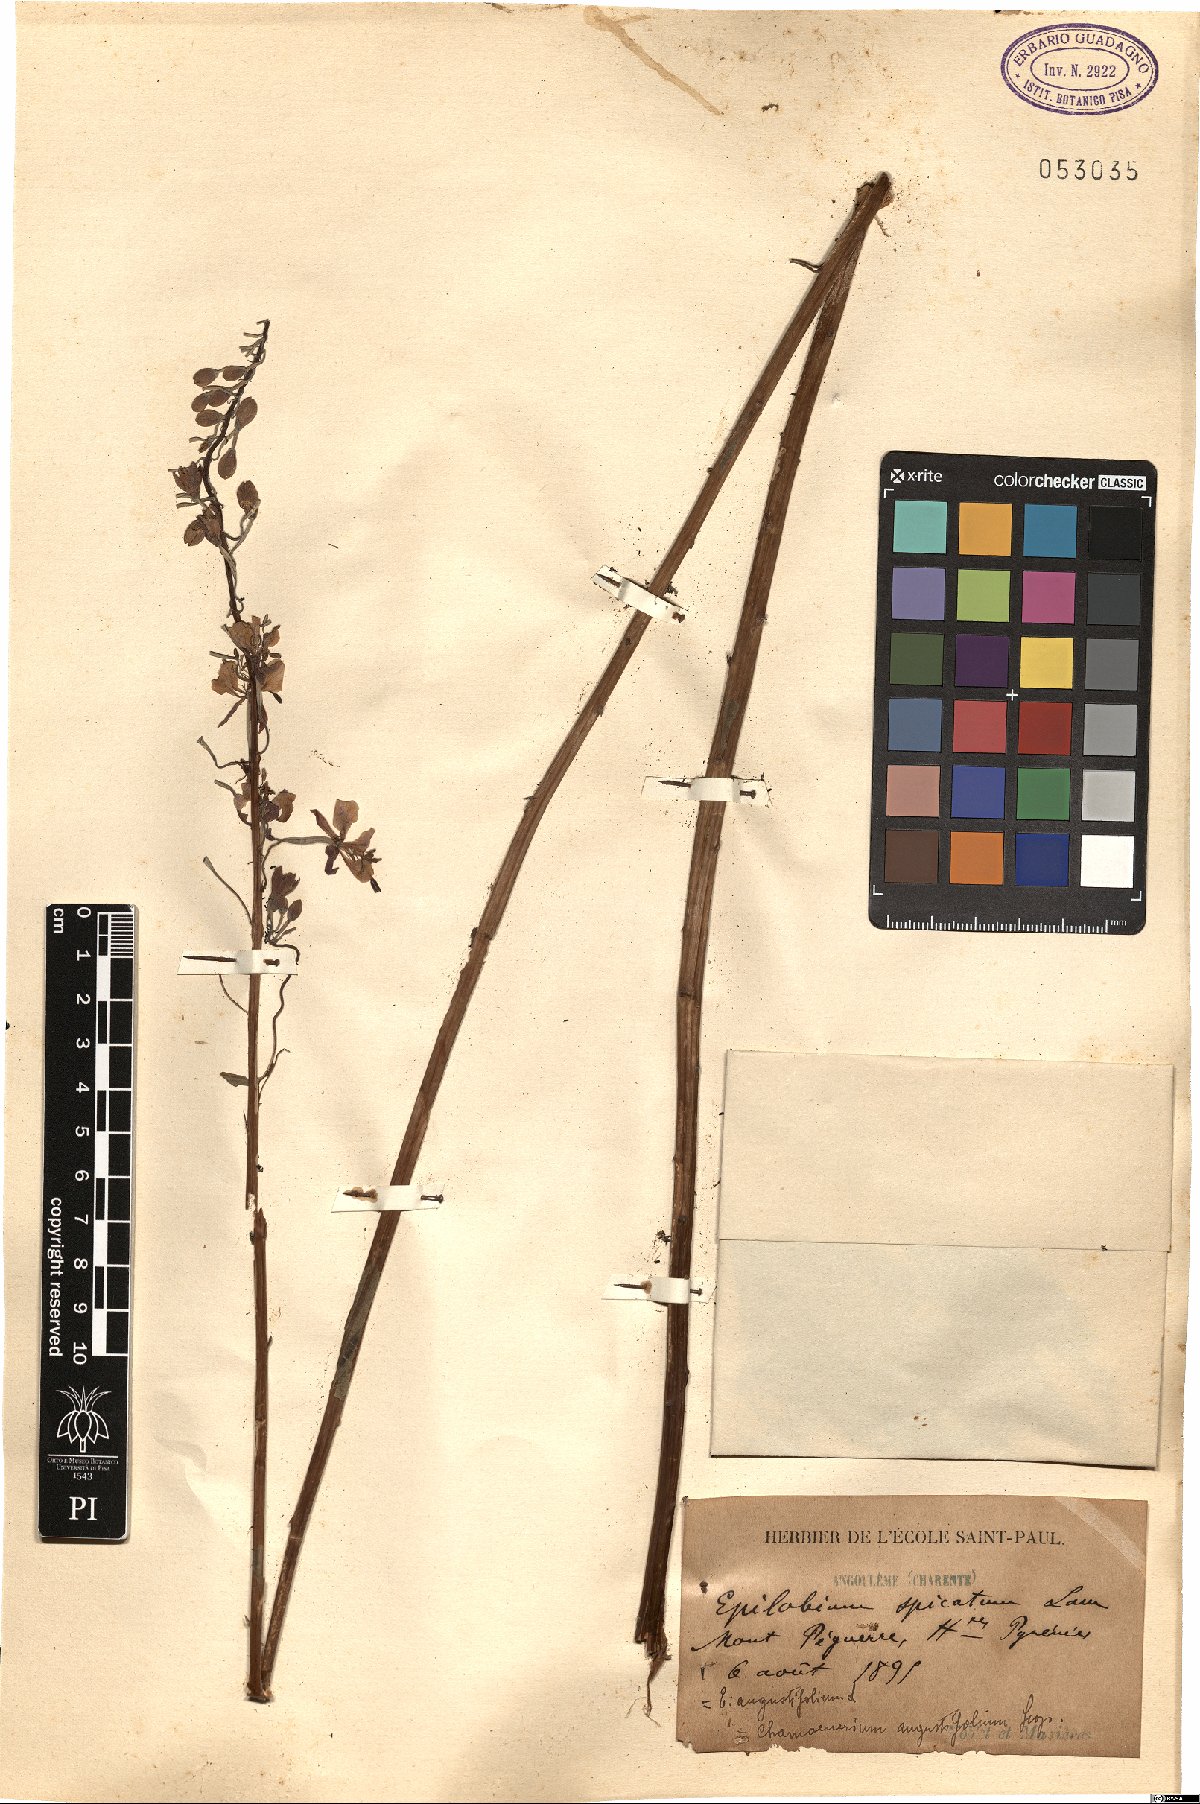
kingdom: Plantae
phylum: Tracheophyta
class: Magnoliopsida
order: Myrtales
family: Onagraceae
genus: Chamaenerion
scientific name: Chamaenerion angustifolium
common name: Fireweed
